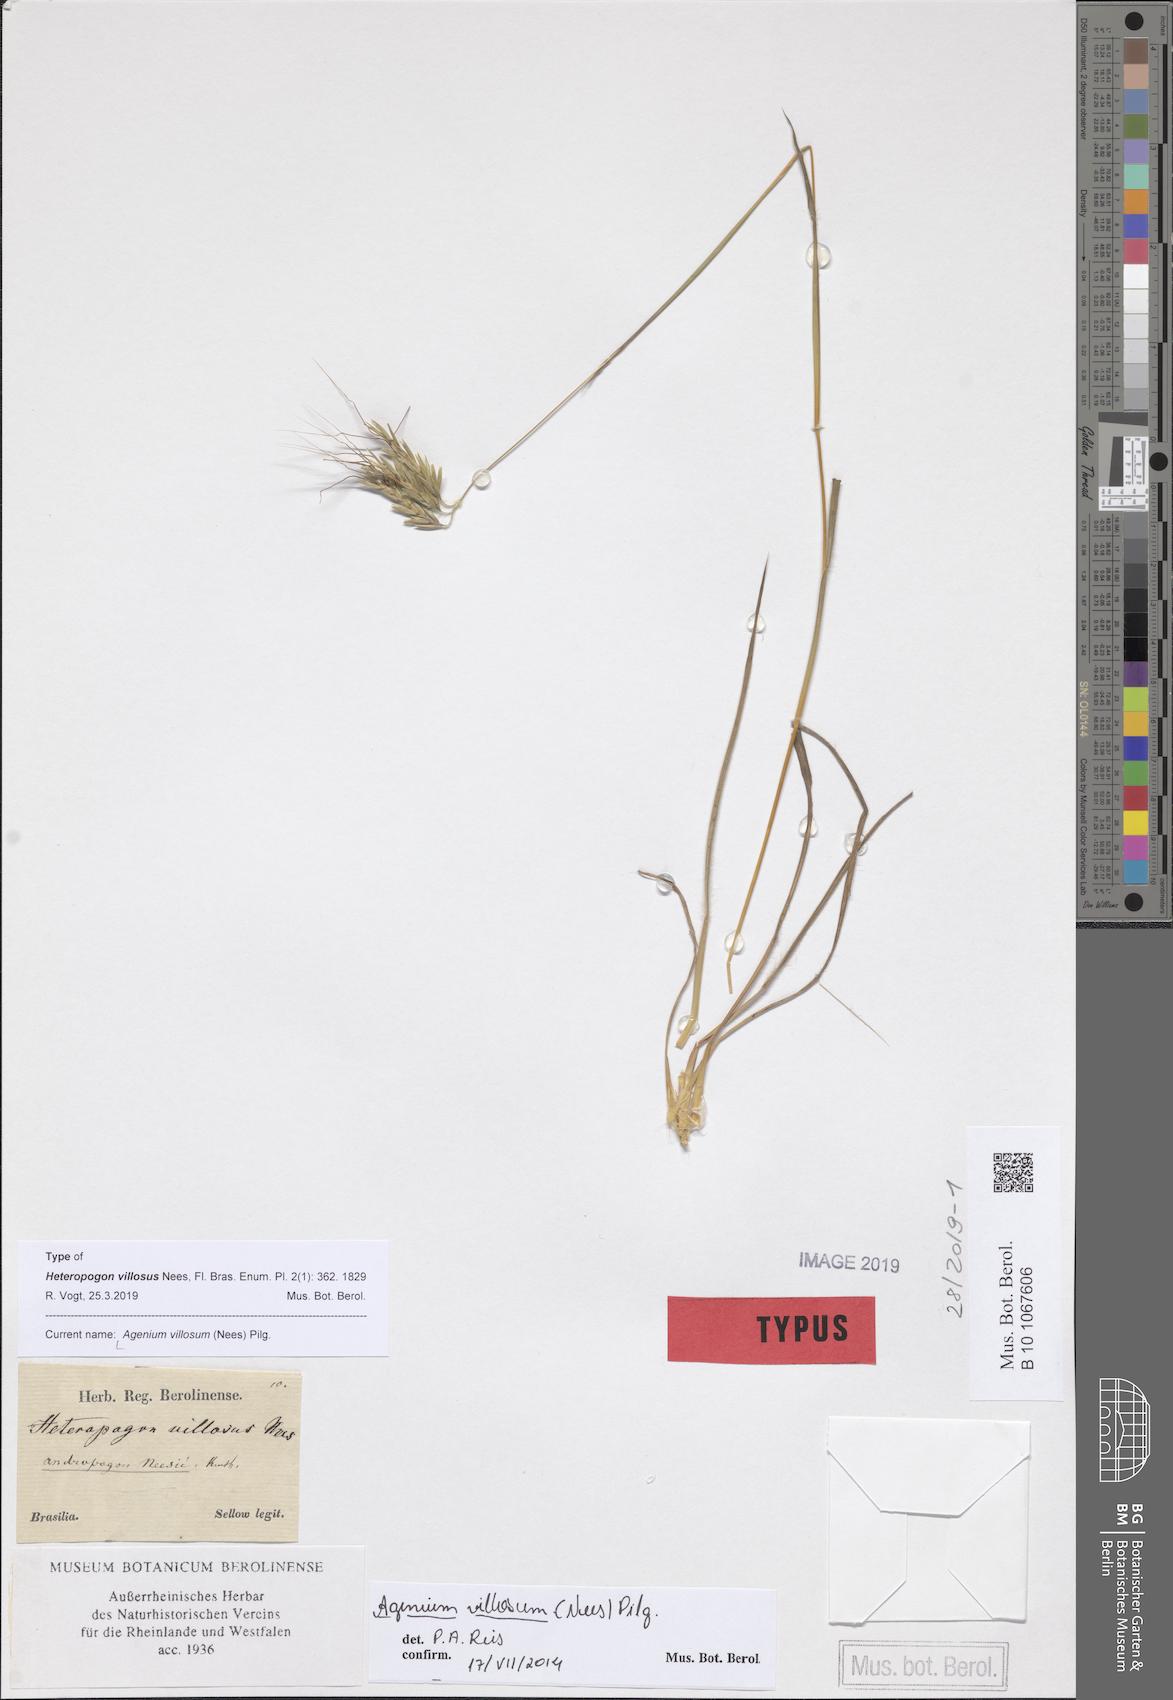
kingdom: Plantae
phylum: Tracheophyta
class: Liliopsida
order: Poales
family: Poaceae
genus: Agenium
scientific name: Agenium villosum
